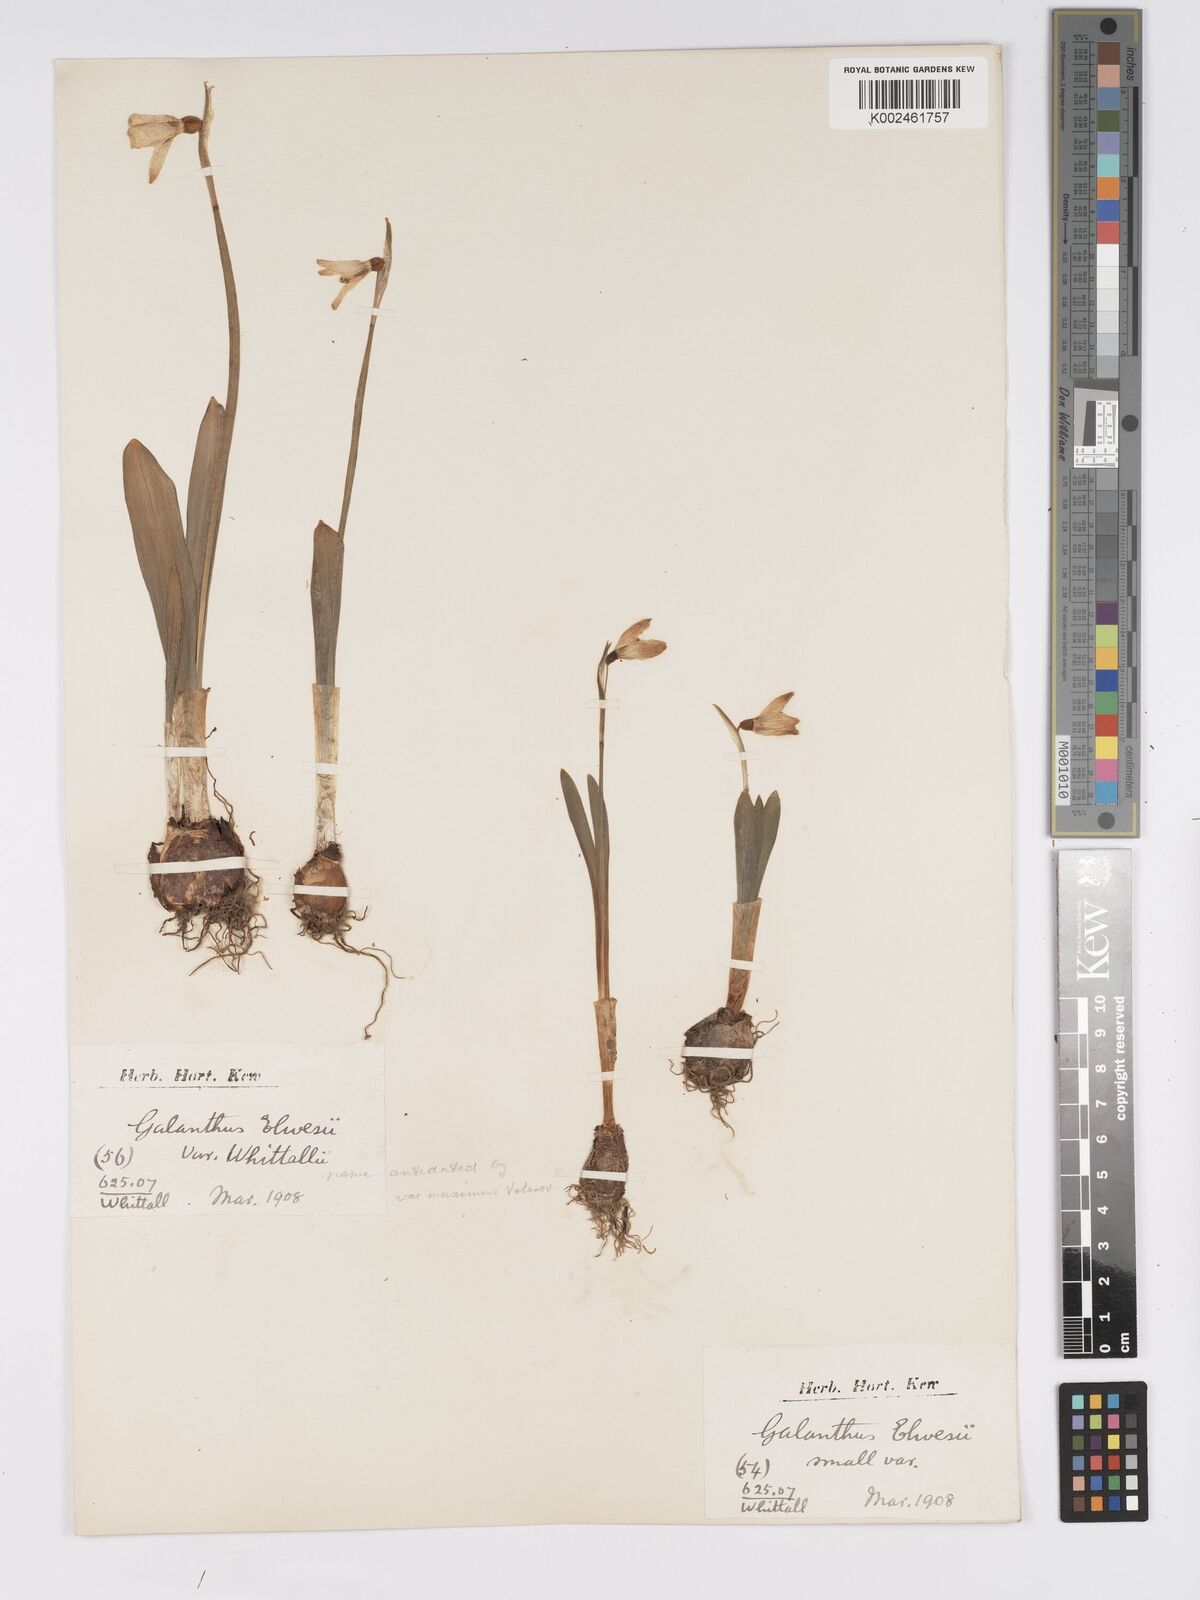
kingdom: Plantae
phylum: Tracheophyta
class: Liliopsida
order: Asparagales
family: Amaryllidaceae
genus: Galanthus
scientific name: Galanthus elwesii
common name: Greater snowdrop
